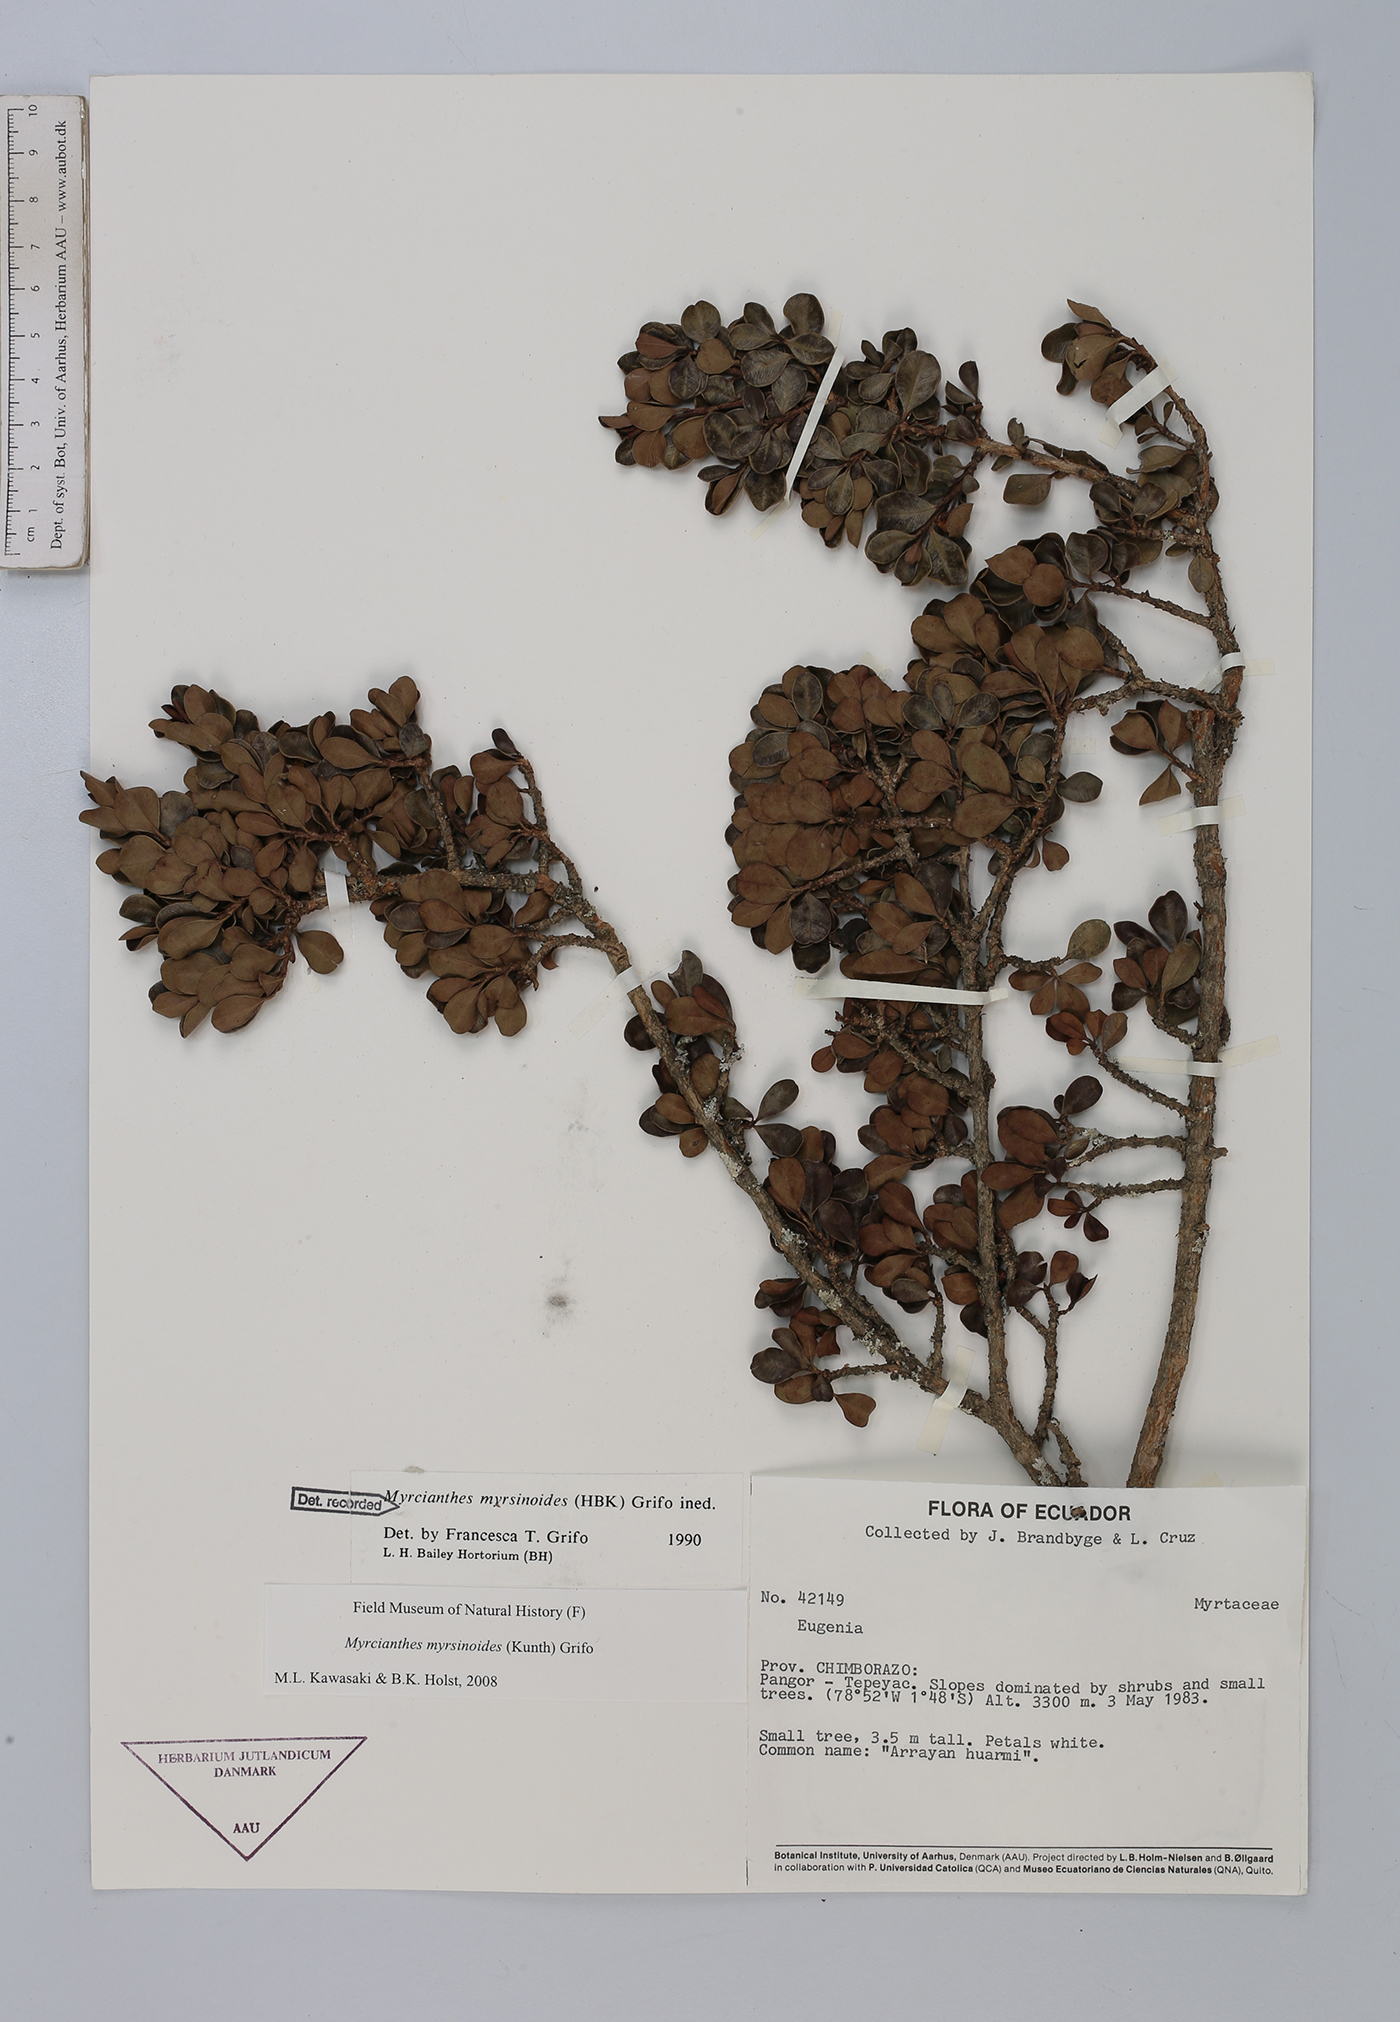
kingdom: Plantae
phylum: Tracheophyta
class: Magnoliopsida
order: Myrtales
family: Myrtaceae
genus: Myrcianthes
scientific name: Myrcianthes myrsinoides
